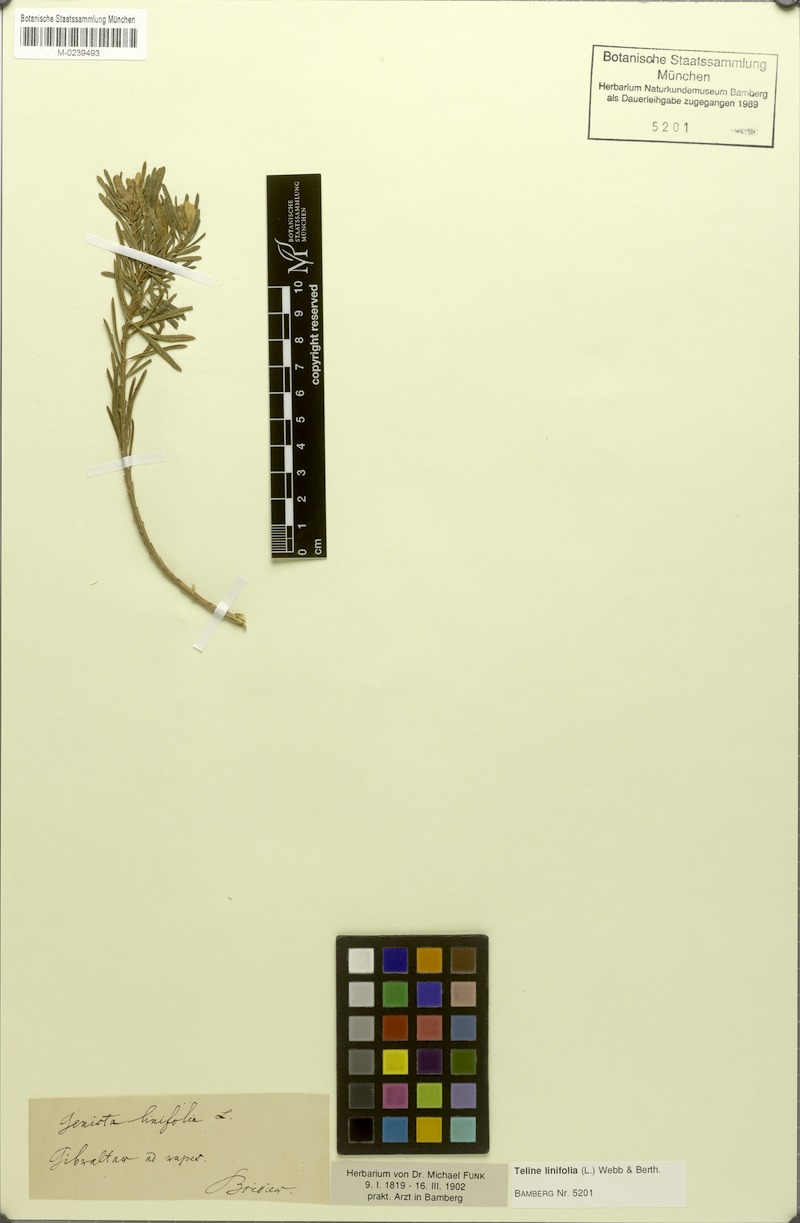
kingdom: Plantae
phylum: Tracheophyta
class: Magnoliopsida
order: Fabales
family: Fabaceae
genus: Genista
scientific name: Genista linifolia
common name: Mediterranean broom
